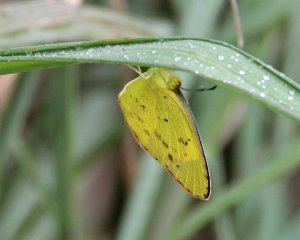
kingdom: Animalia
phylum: Arthropoda
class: Insecta
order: Lepidoptera
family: Pieridae
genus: Pyrisitia
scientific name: Pyrisitia lisa
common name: Little Yellow
